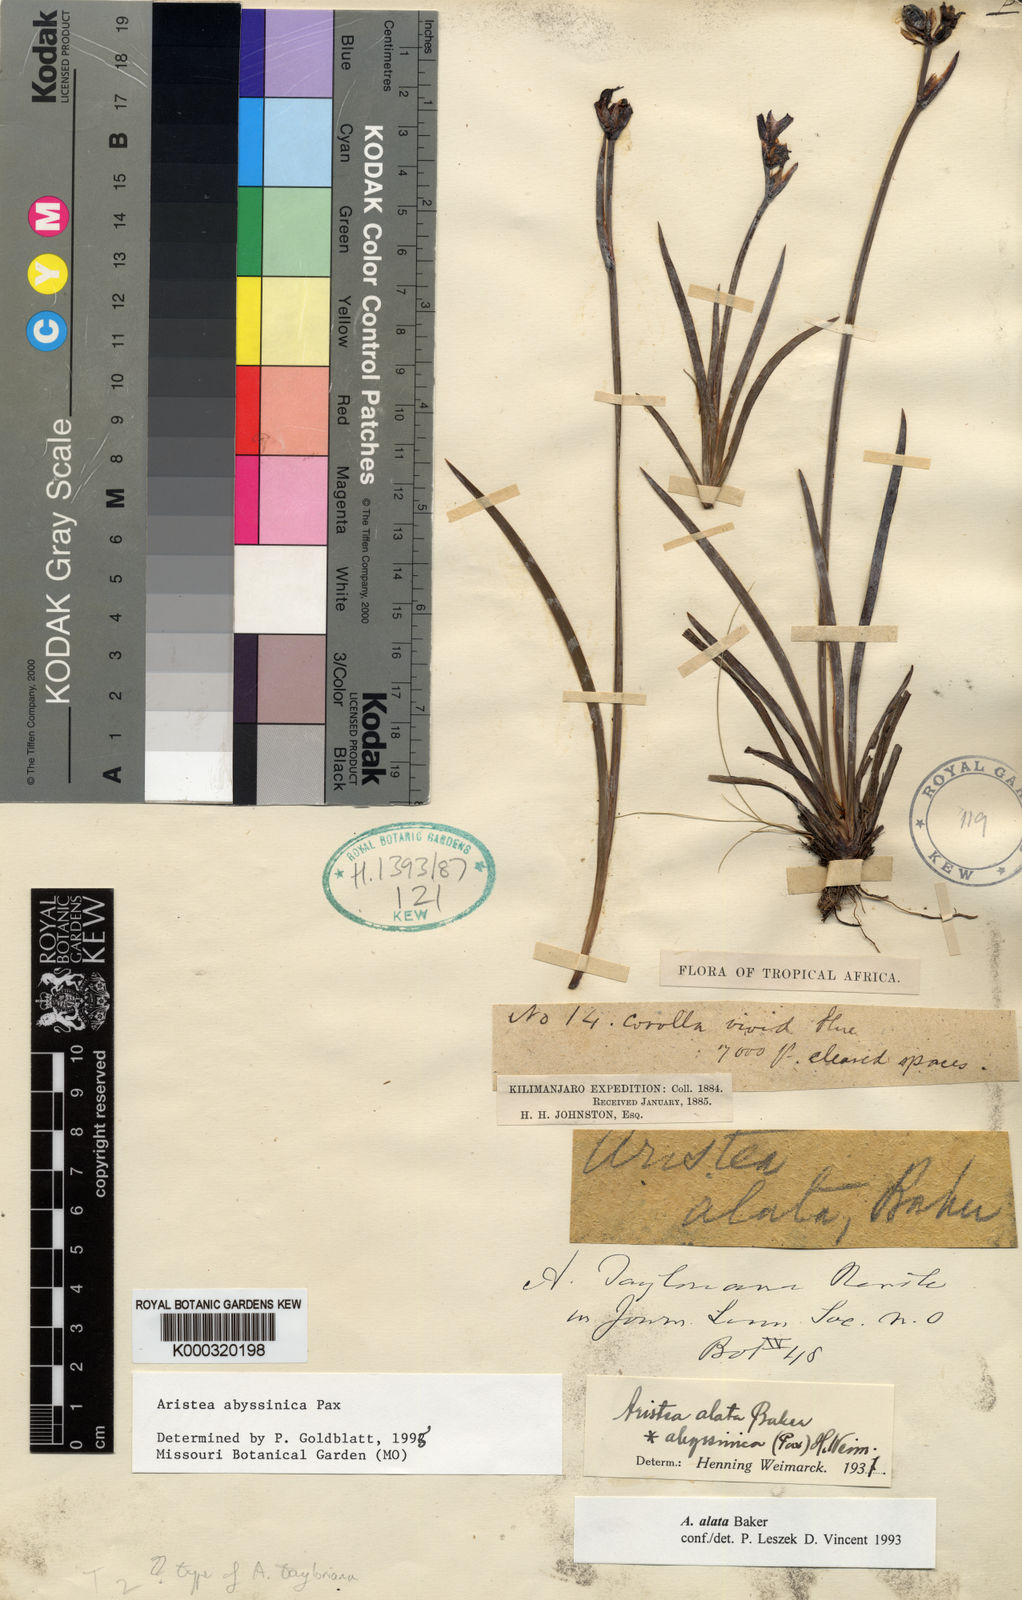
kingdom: Plantae
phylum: Tracheophyta
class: Liliopsida
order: Asparagales
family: Iridaceae
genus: Aristea
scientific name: Aristea abyssinica
